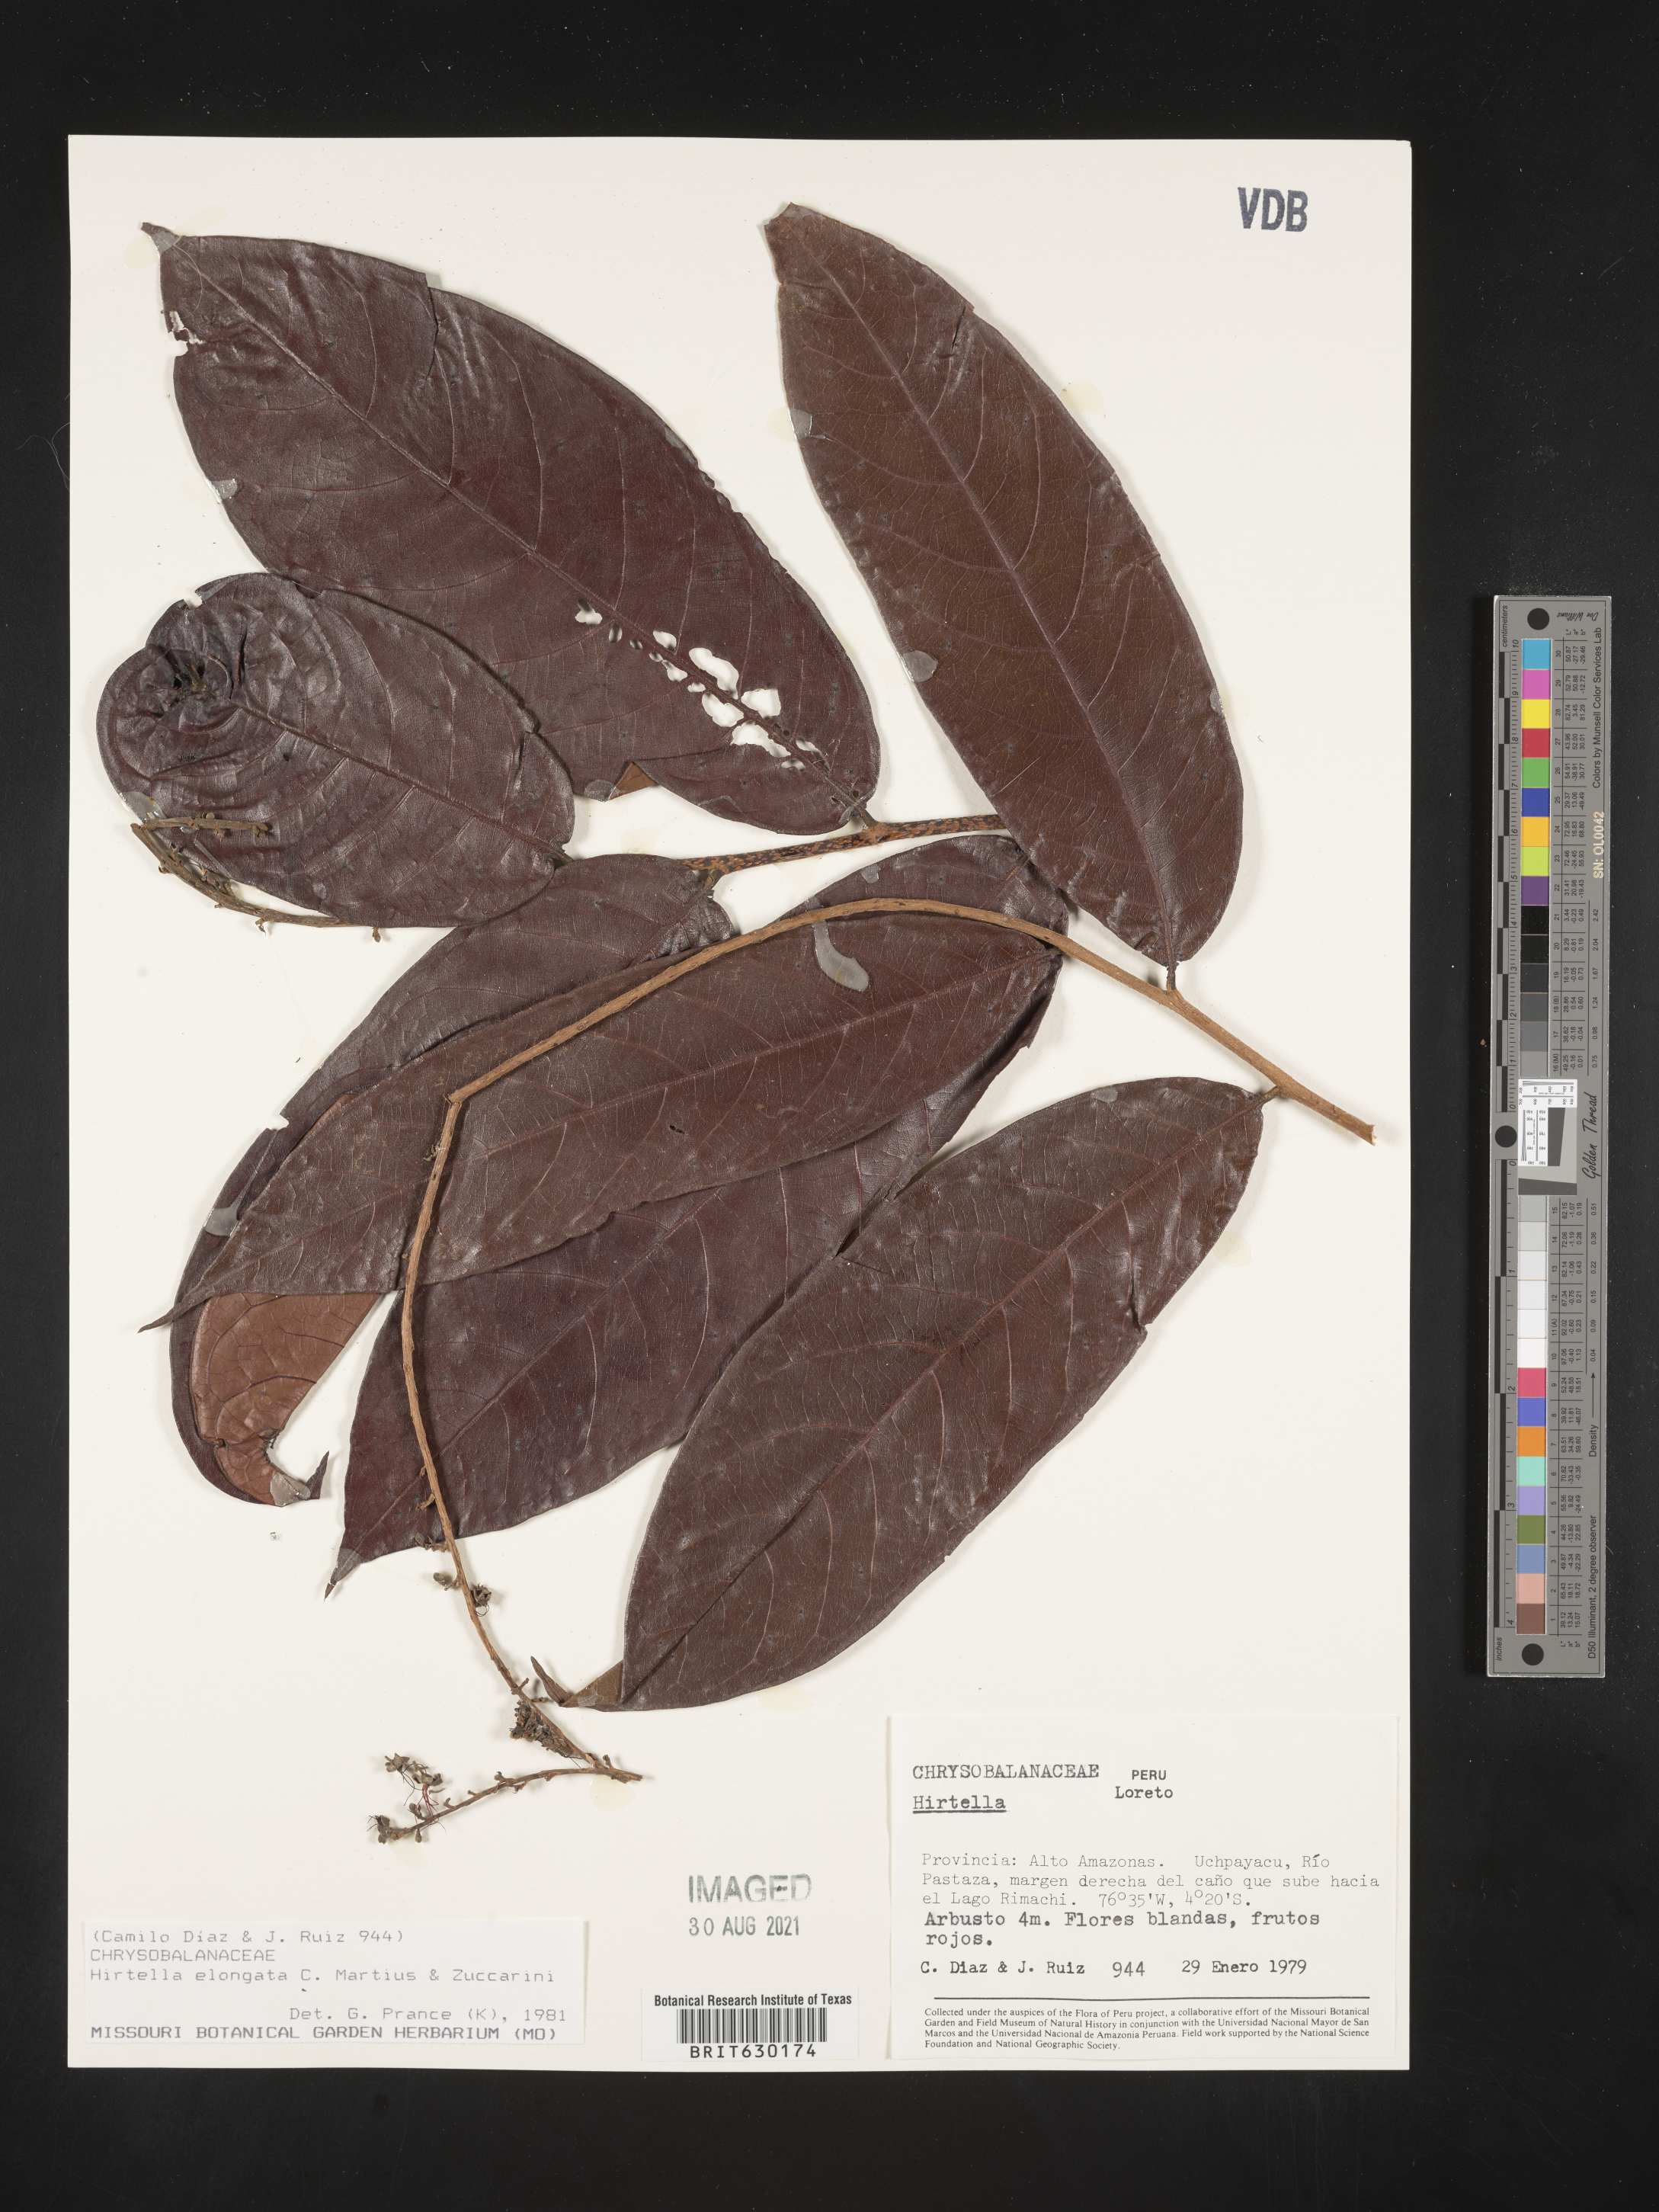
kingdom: Plantae
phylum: Tracheophyta
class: Magnoliopsida
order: Malpighiales
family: Chrysobalanaceae
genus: Hirtella
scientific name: Hirtella elongata
